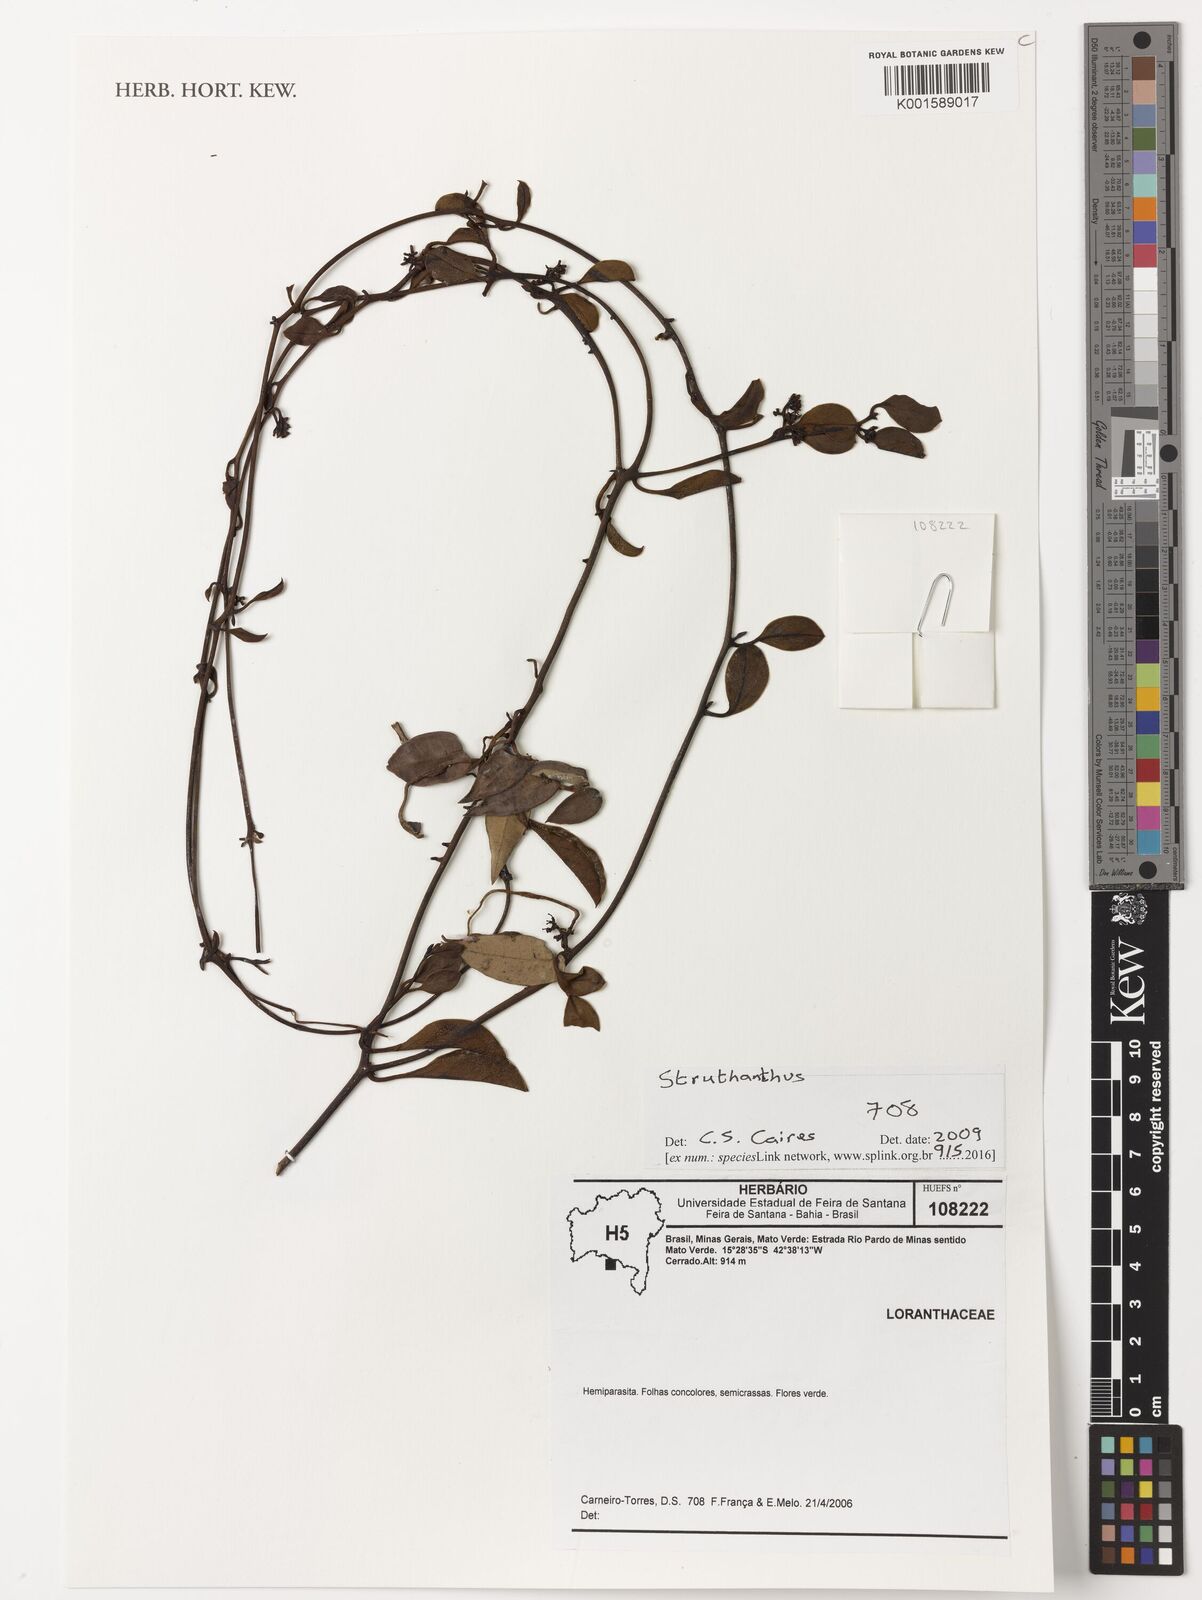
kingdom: Plantae
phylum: Tracheophyta
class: Magnoliopsida
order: Santalales
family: Loranthaceae
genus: Struthanthus
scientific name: Struthanthus
